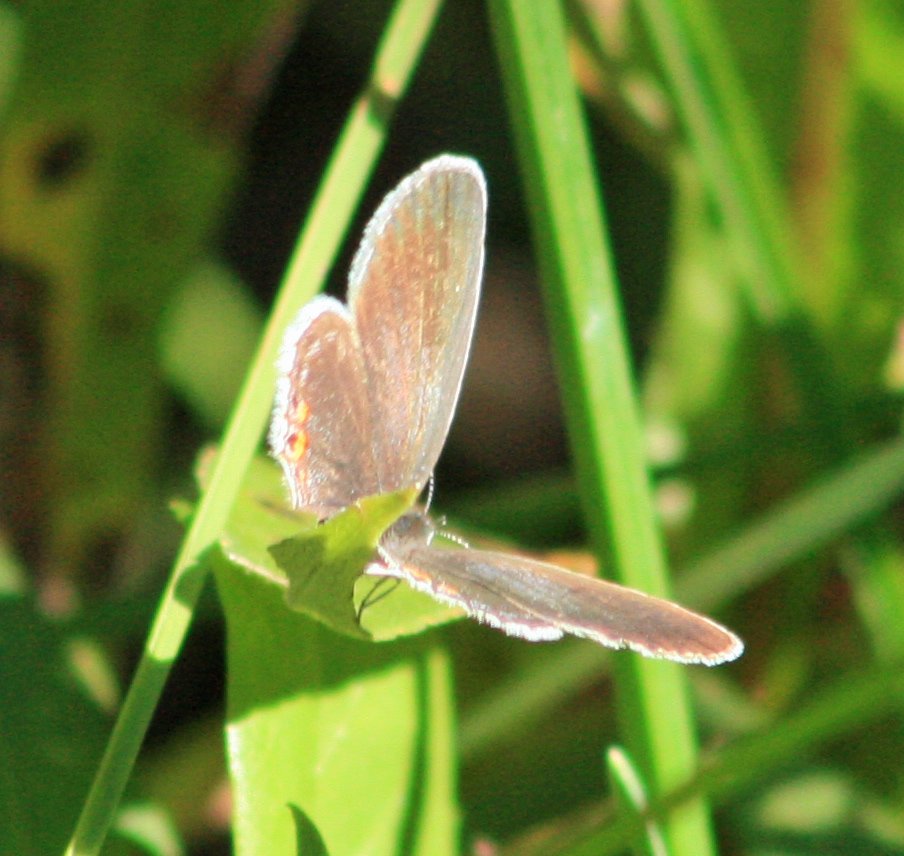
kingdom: Animalia
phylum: Arthropoda
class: Insecta
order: Lepidoptera
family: Lycaenidae
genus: Elkalyce
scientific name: Elkalyce comyntas
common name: Eastern Tailed-Blue
